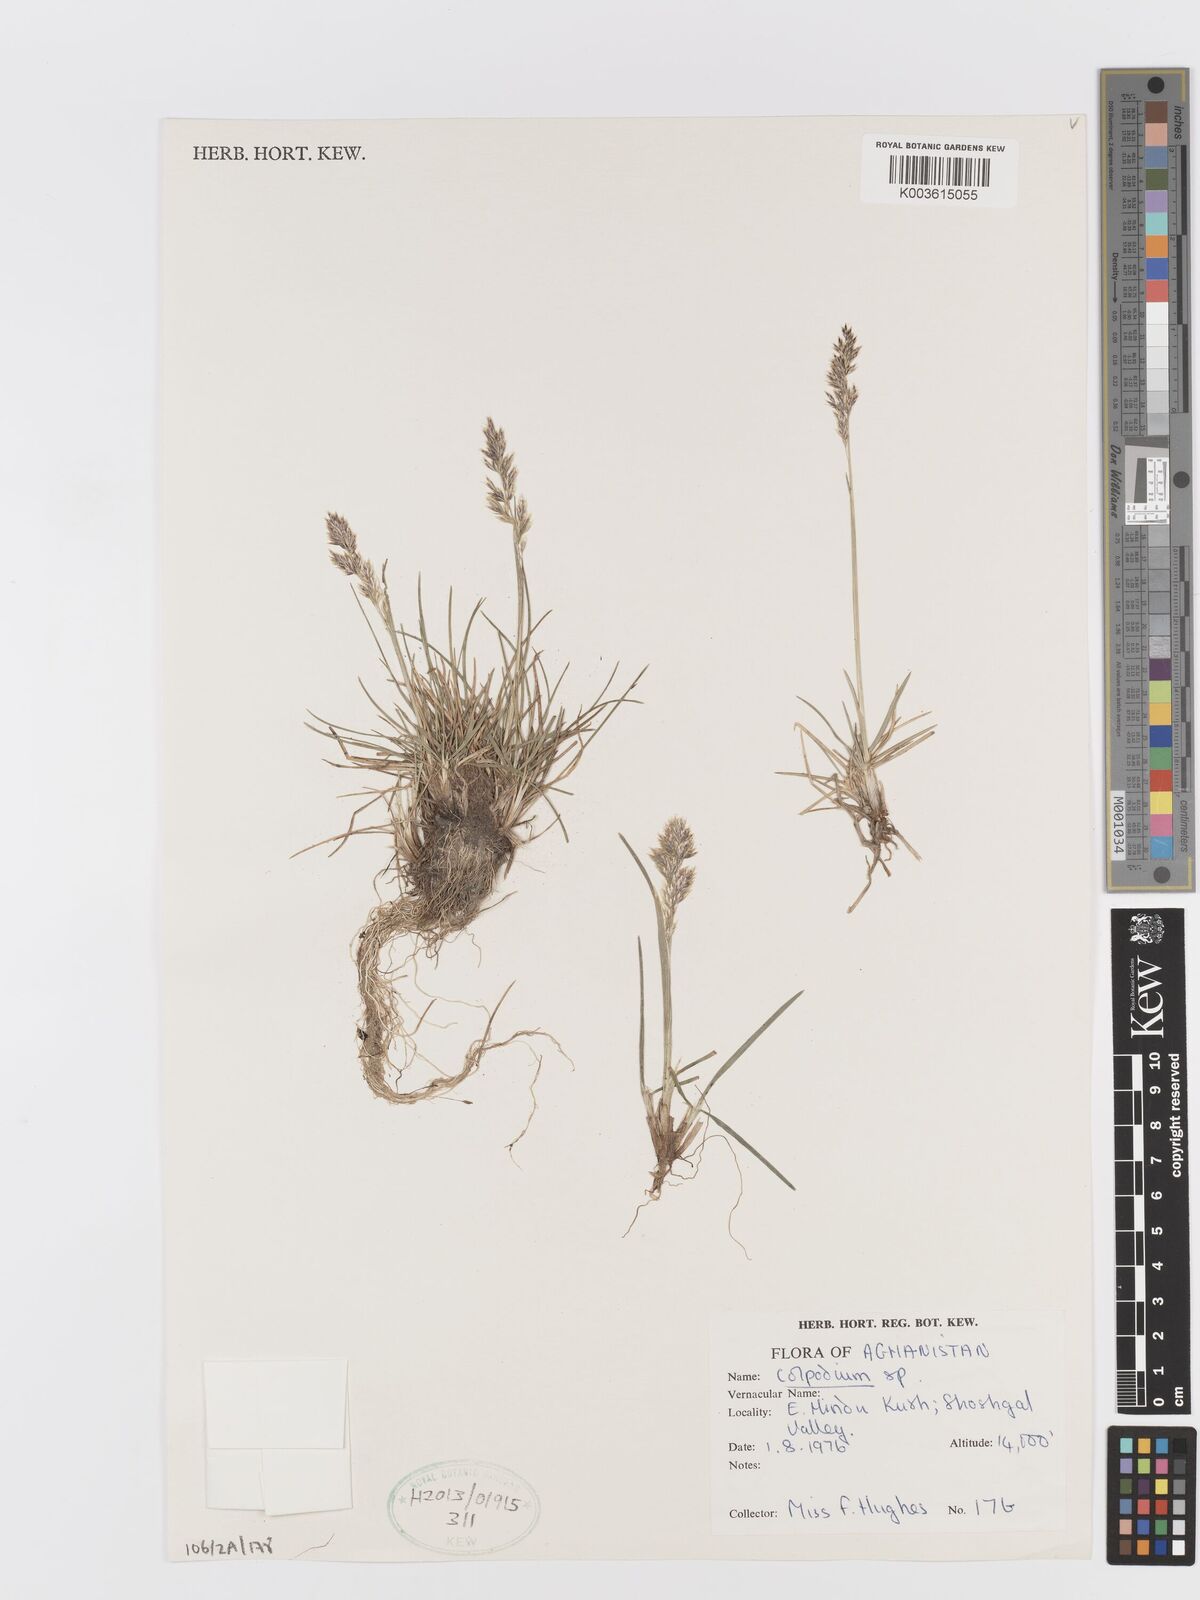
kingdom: Plantae
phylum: Tracheophyta
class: Liliopsida
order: Poales
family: Poaceae
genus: Trisetum
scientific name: Trisetum
